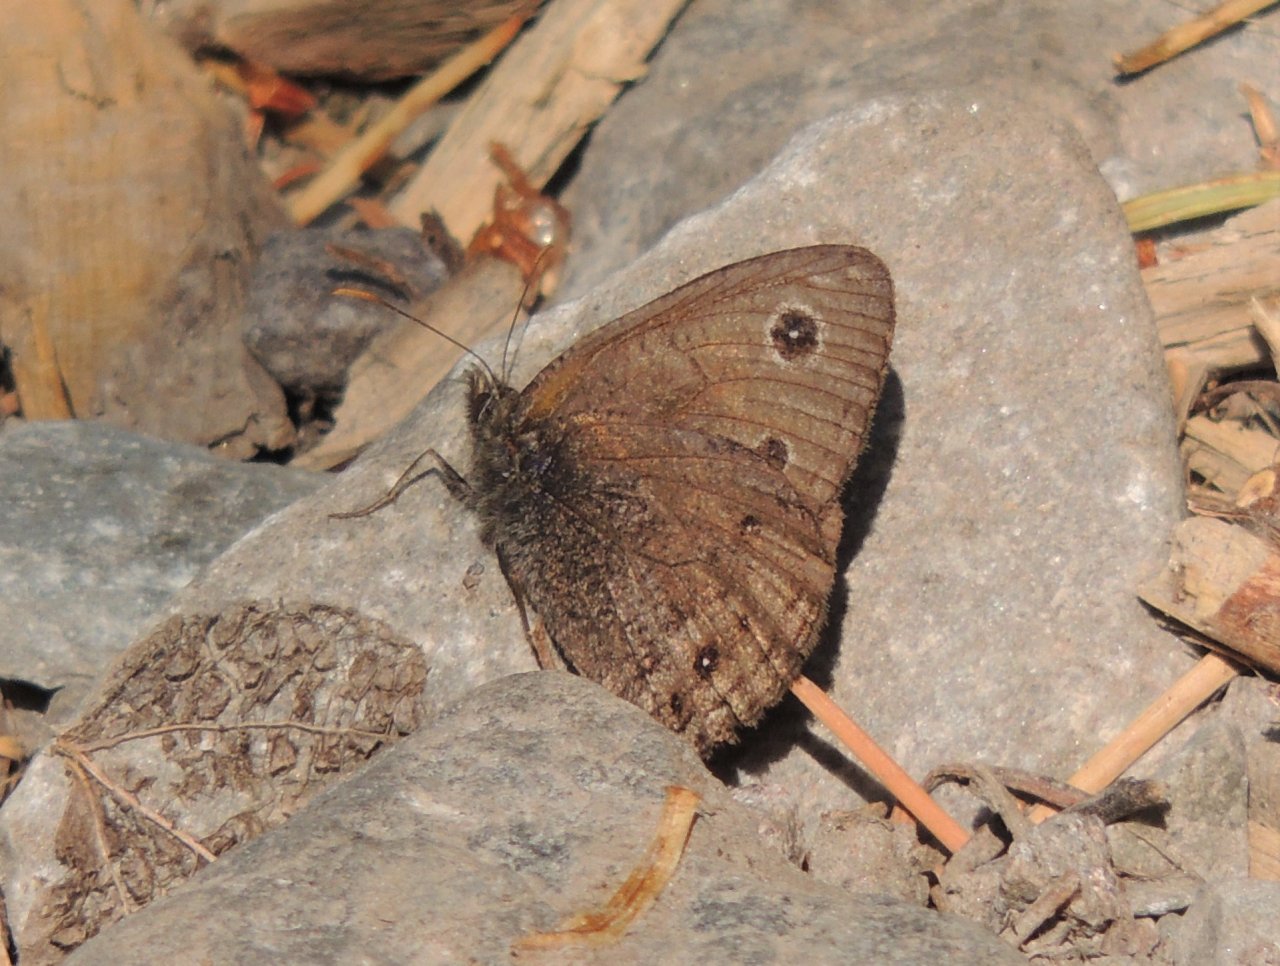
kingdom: Animalia
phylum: Arthropoda
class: Insecta
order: Lepidoptera
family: Nymphalidae
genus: Cercyonis
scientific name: Cercyonis oetus
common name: Small Wood-Nymph
